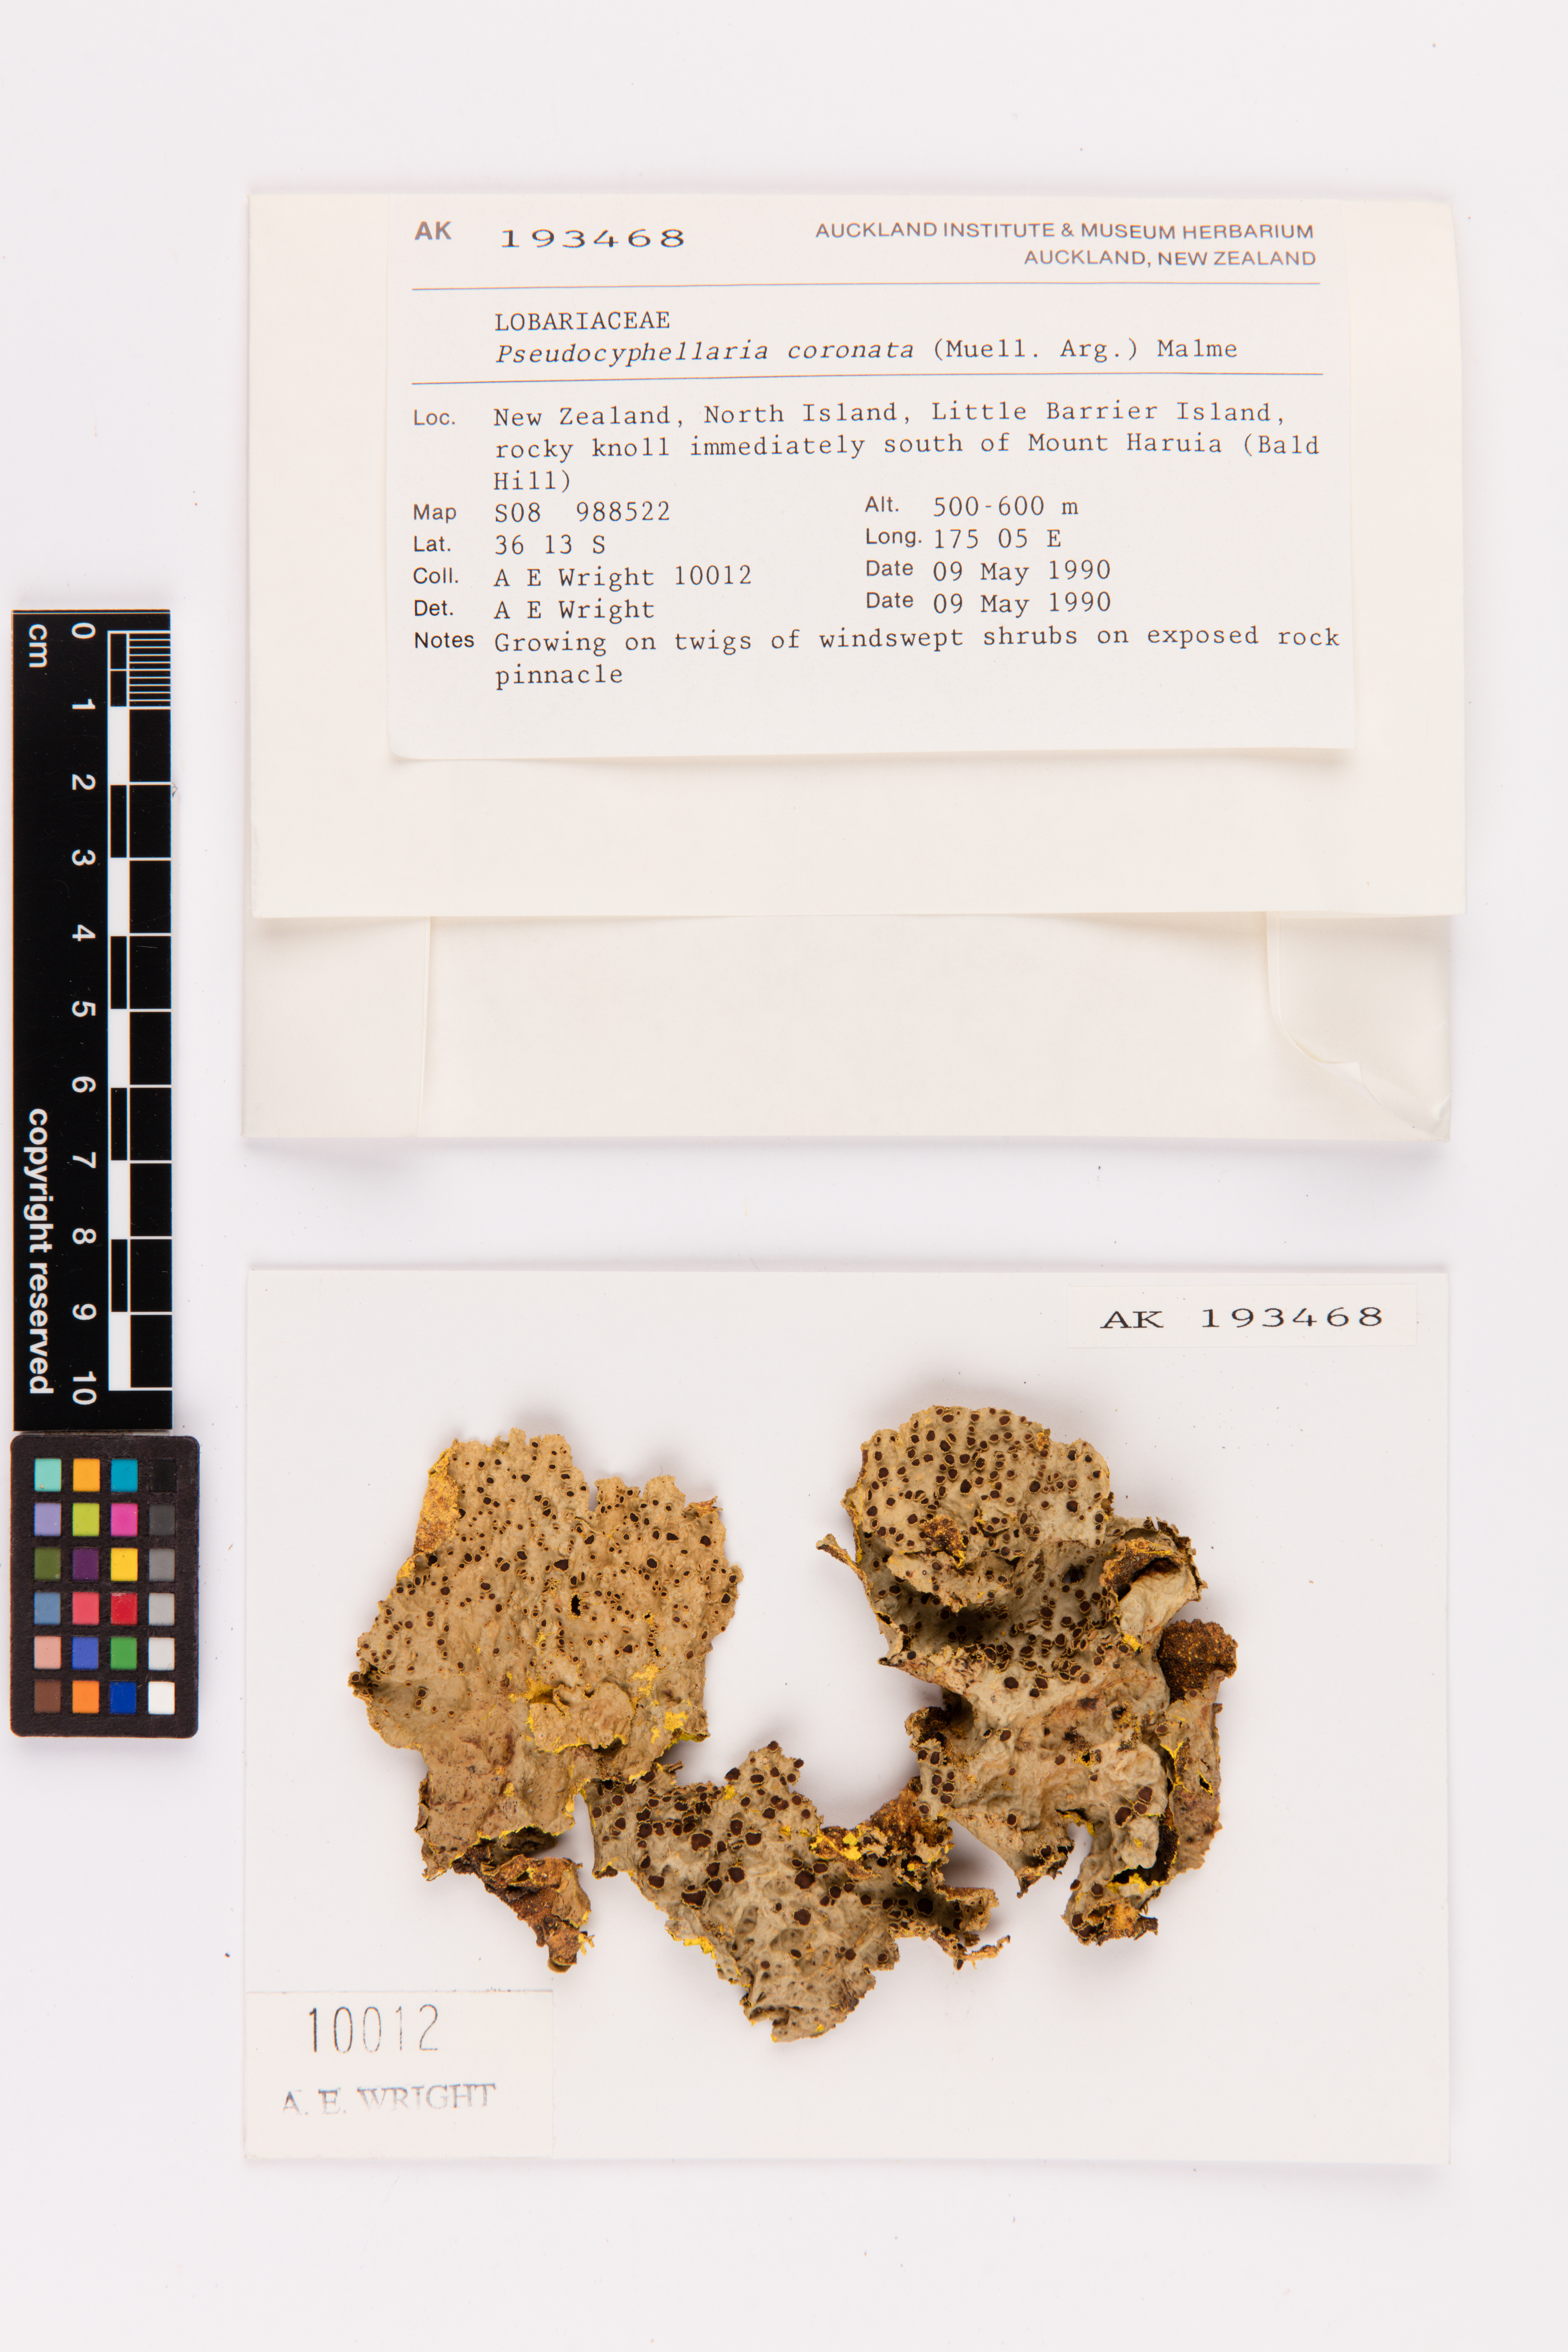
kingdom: Fungi
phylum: Ascomycota
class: Lecanoromycetes
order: Peltigerales
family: Lobariaceae
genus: Yarrumia
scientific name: Yarrumia coronata
